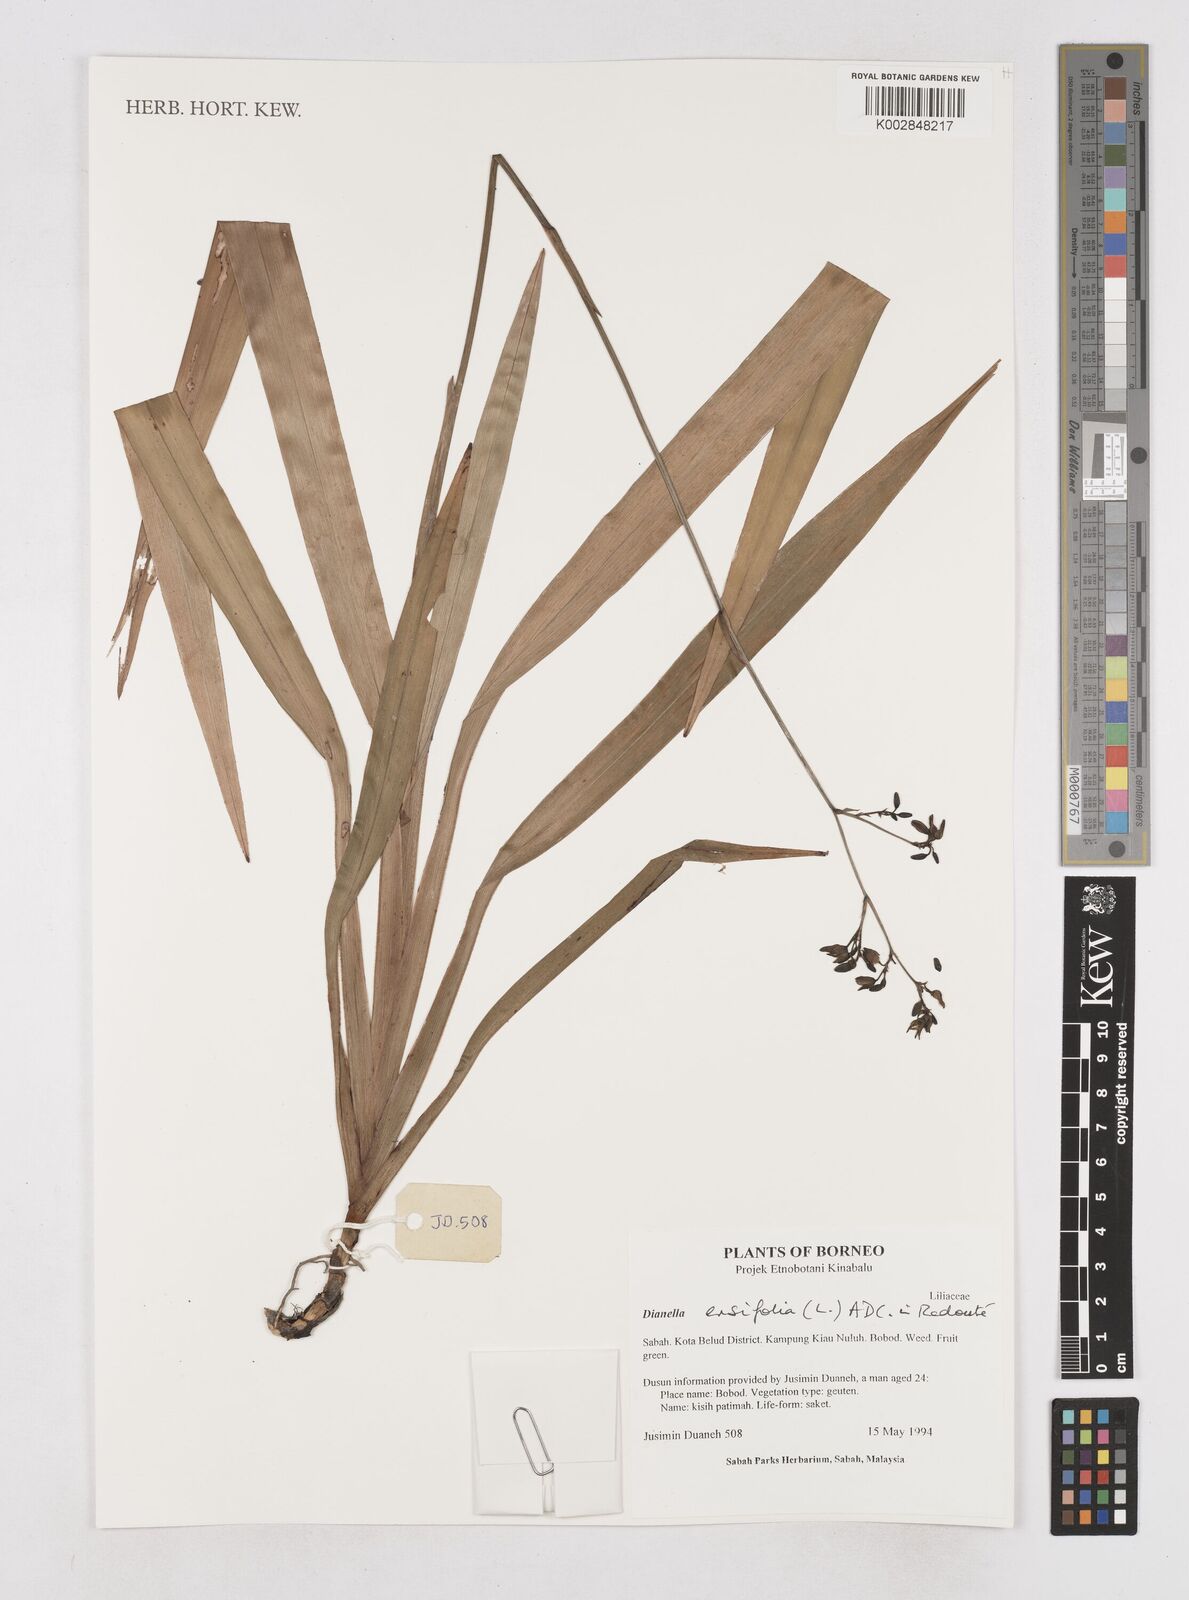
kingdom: Plantae
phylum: Tracheophyta
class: Liliopsida
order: Asparagales
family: Asphodelaceae
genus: Dianella
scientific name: Dianella ensifolia
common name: New zealand lilyplant
